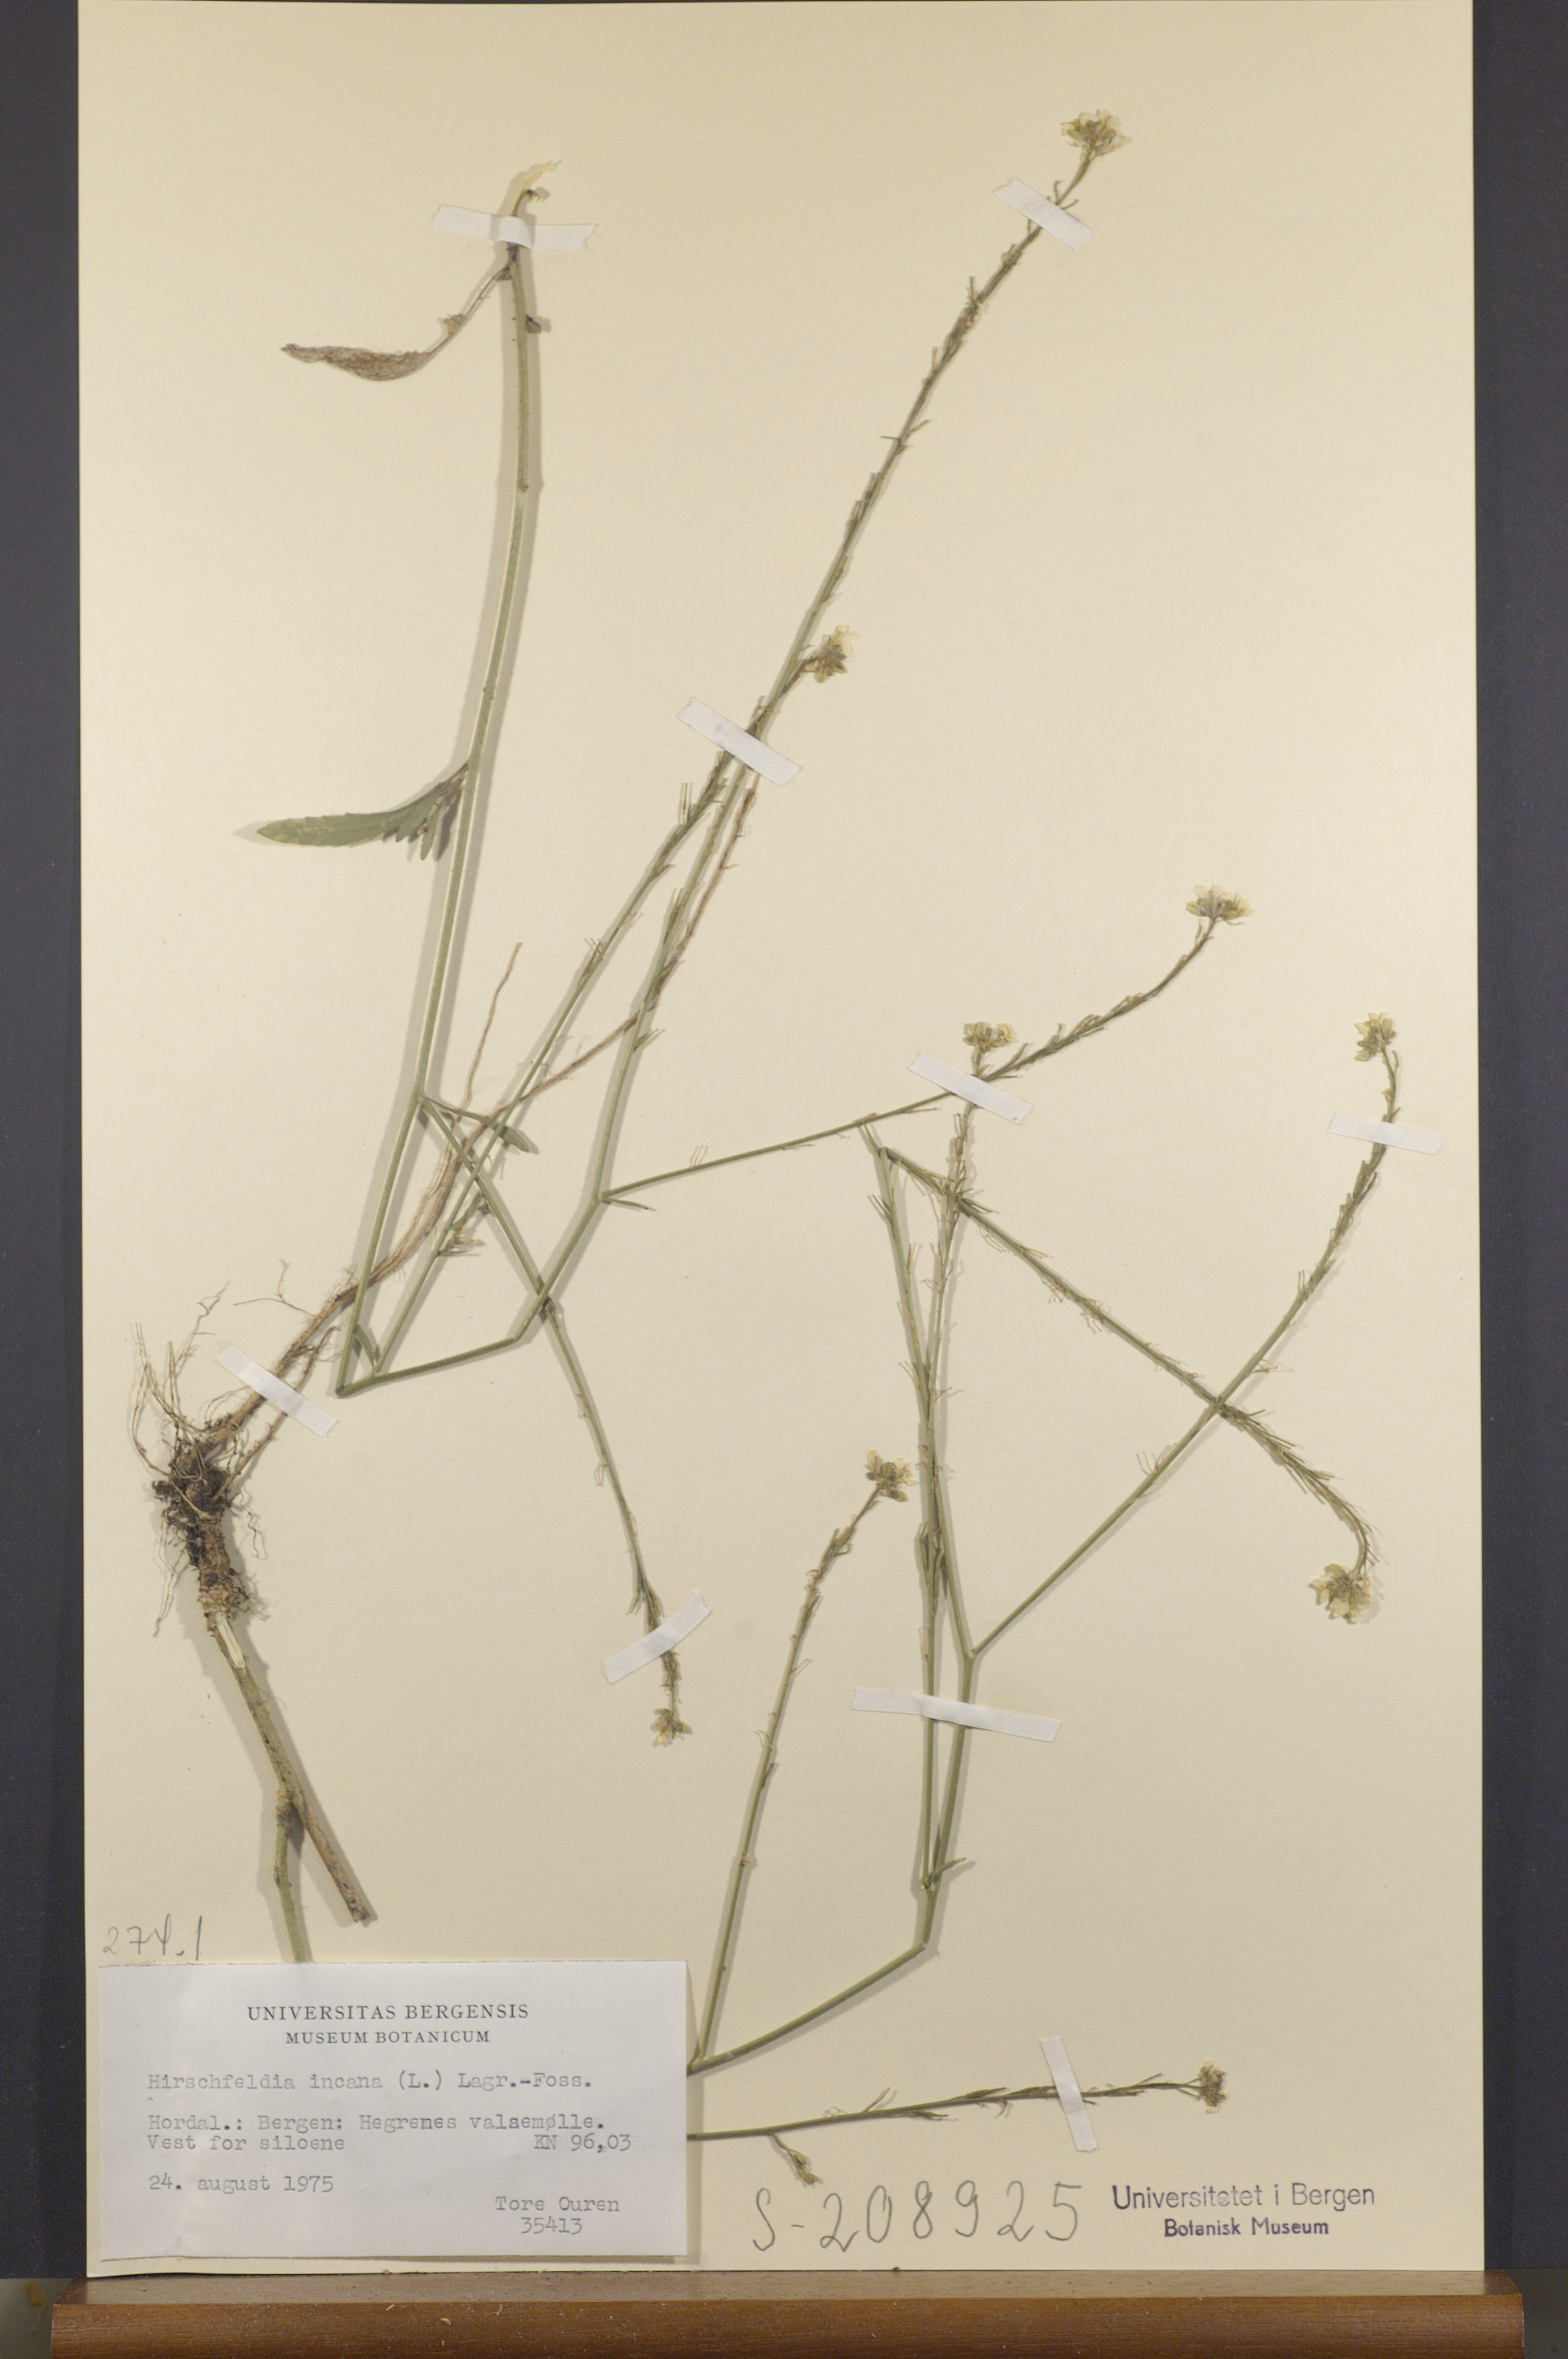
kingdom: Plantae
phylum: Tracheophyta
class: Magnoliopsida
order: Brassicales
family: Brassicaceae
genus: Hirschfeldia
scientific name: Hirschfeldia incana
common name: Hoary mustard
